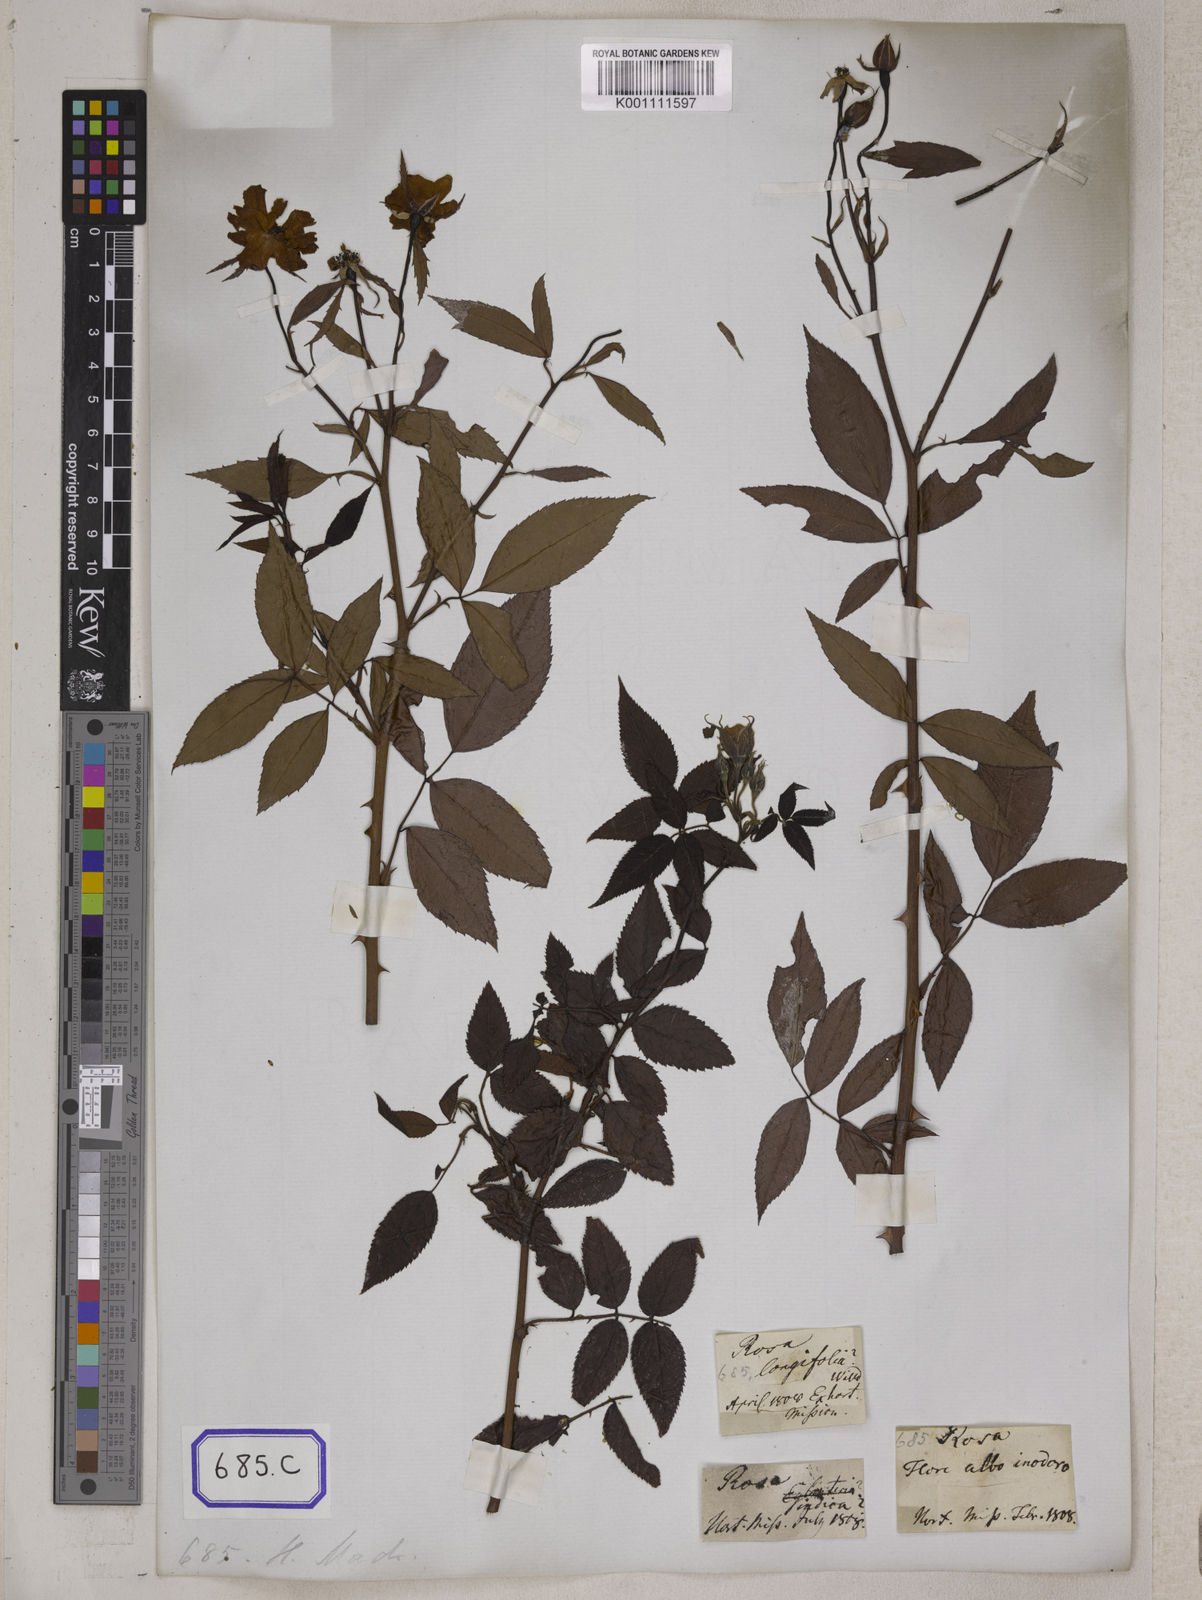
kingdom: Plantae
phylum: Tracheophyta
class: Magnoliopsida
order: Rosales
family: Rosaceae
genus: Rosa
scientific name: Rosa indica
